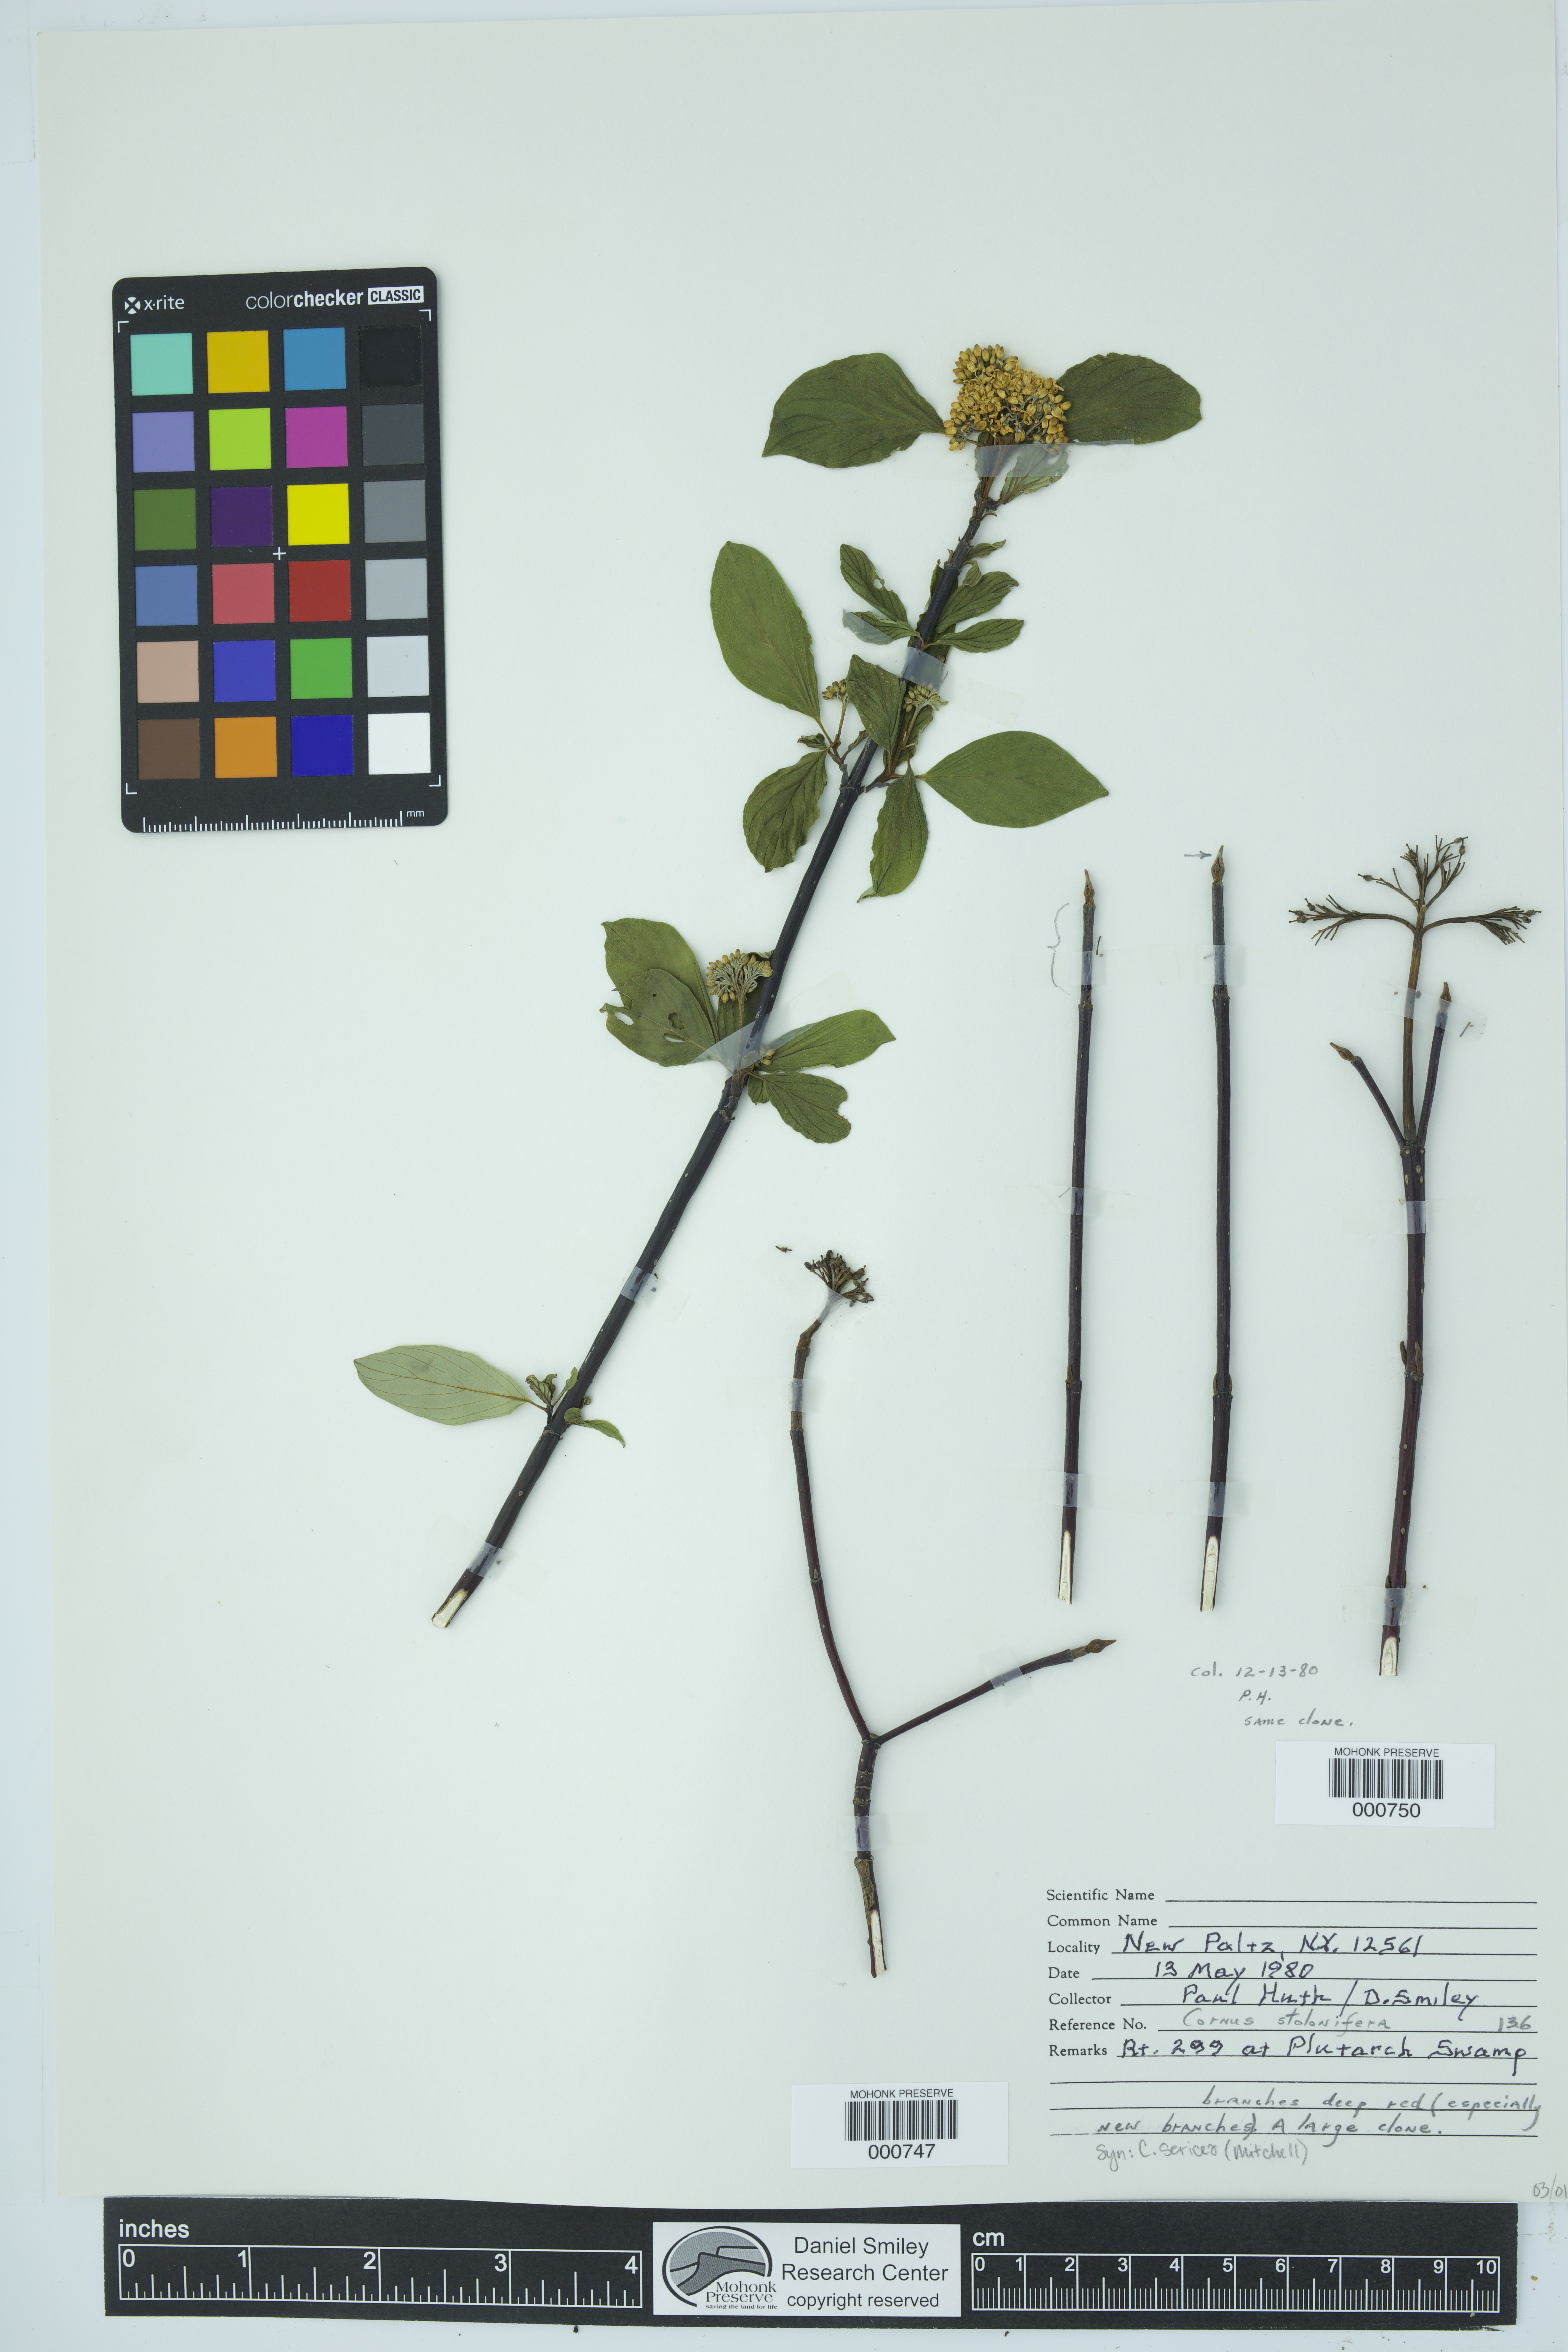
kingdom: Plantae
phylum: Tracheophyta
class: Magnoliopsida
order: Cornales
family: Cornaceae
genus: Cornus
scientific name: Cornus sericea
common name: Red-osier dogwood
